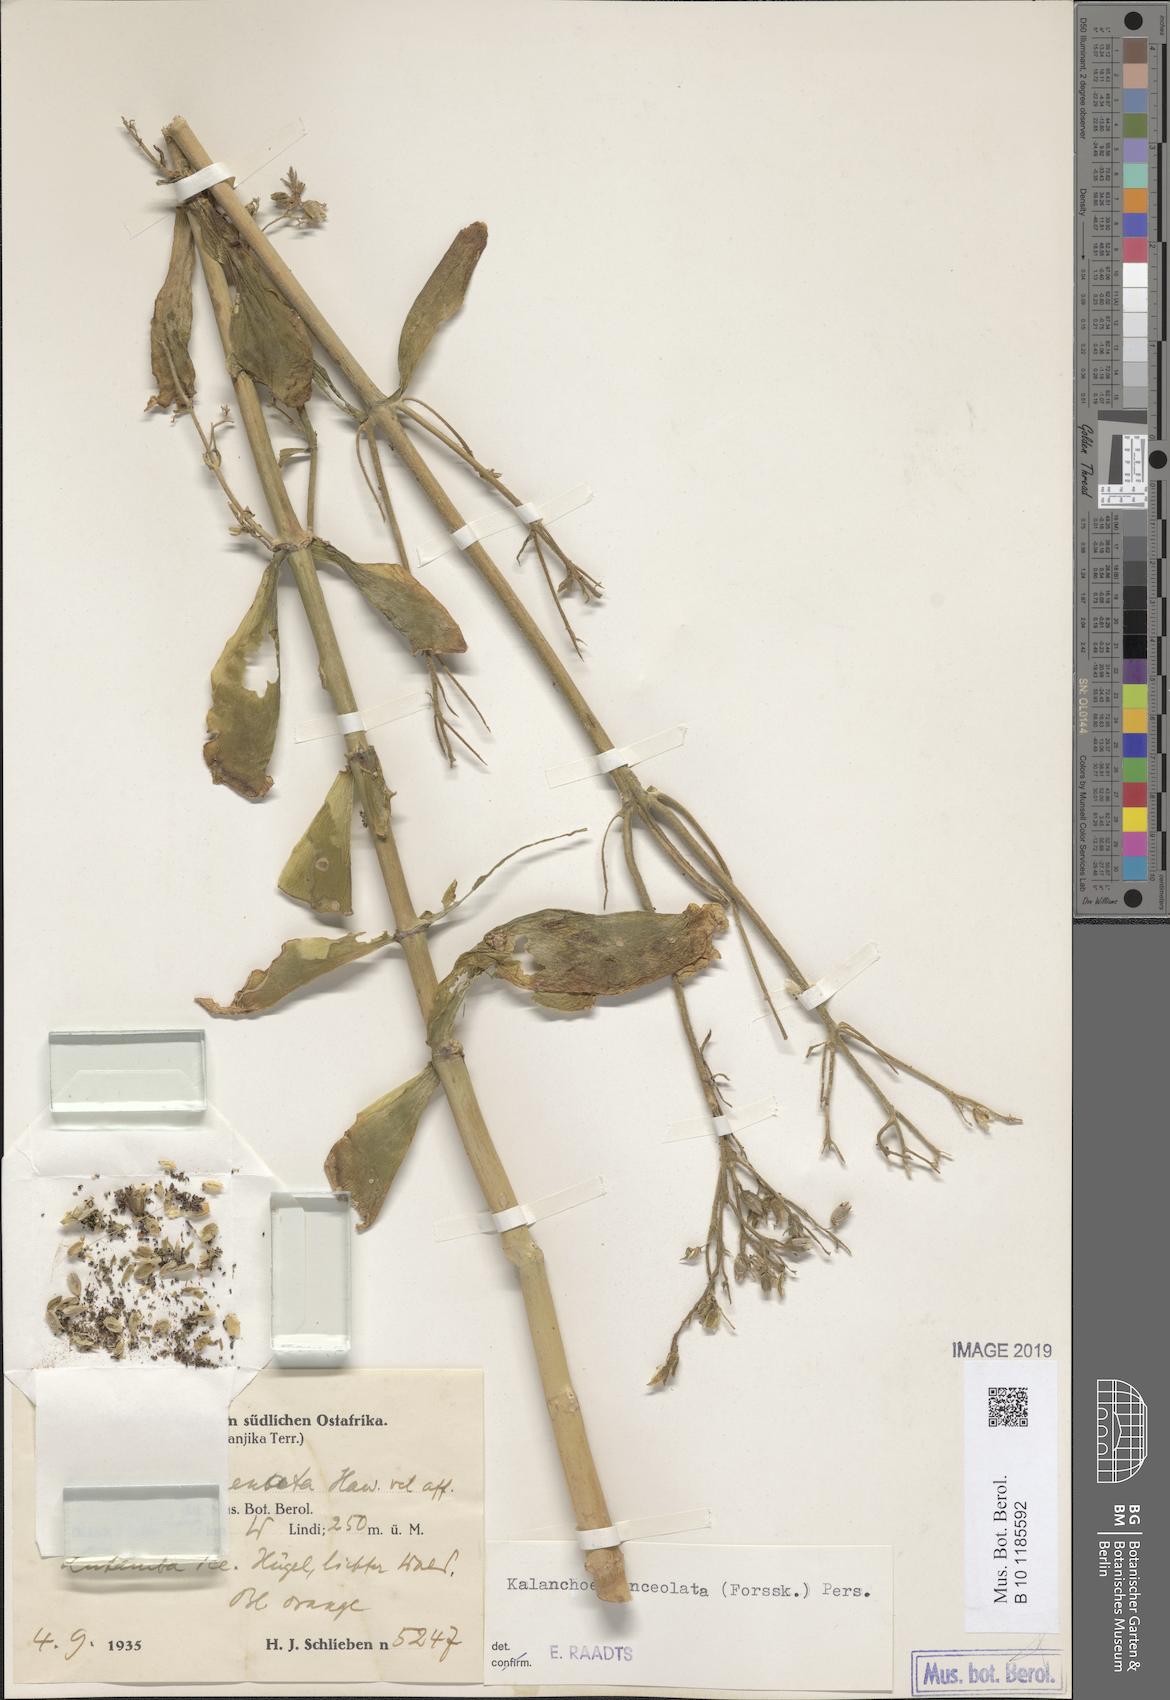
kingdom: Plantae
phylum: Tracheophyta
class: Magnoliopsida
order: Saxifragales
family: Crassulaceae
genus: Kalanchoe
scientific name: Kalanchoe lanceolata
